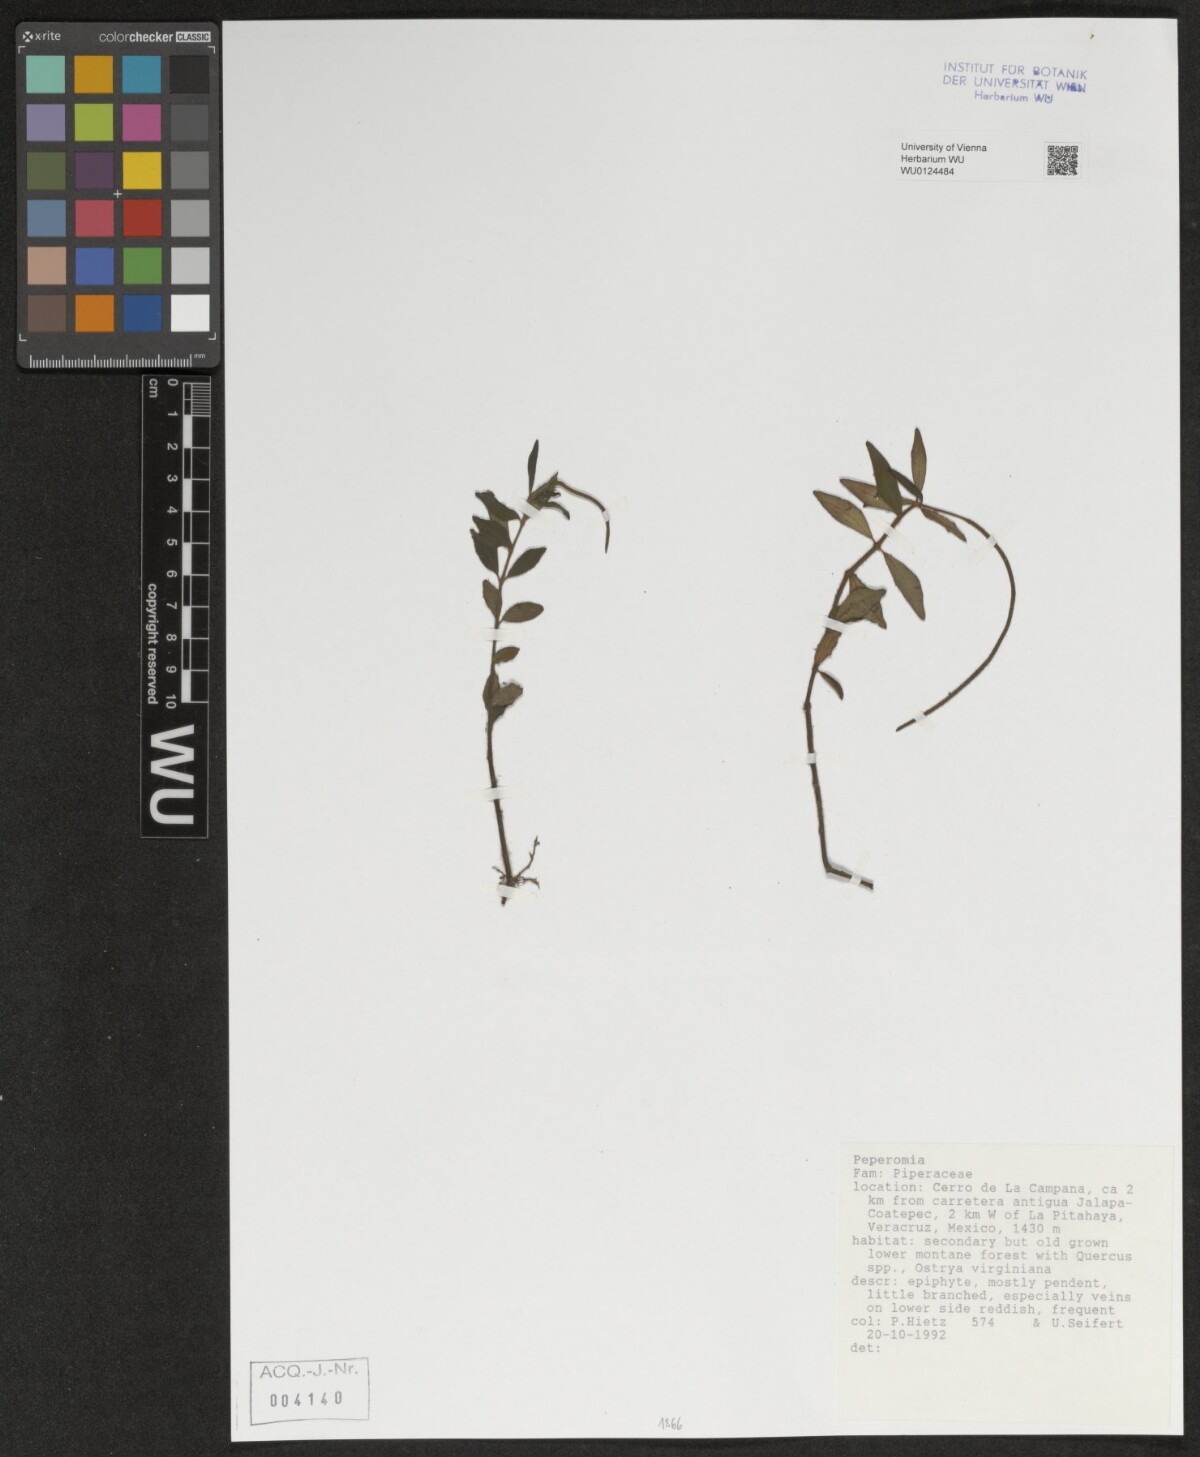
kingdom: Plantae
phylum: Tracheophyta
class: Magnoliopsida
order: Piperales
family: Piperaceae
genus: Peperomia
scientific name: Peperomia
